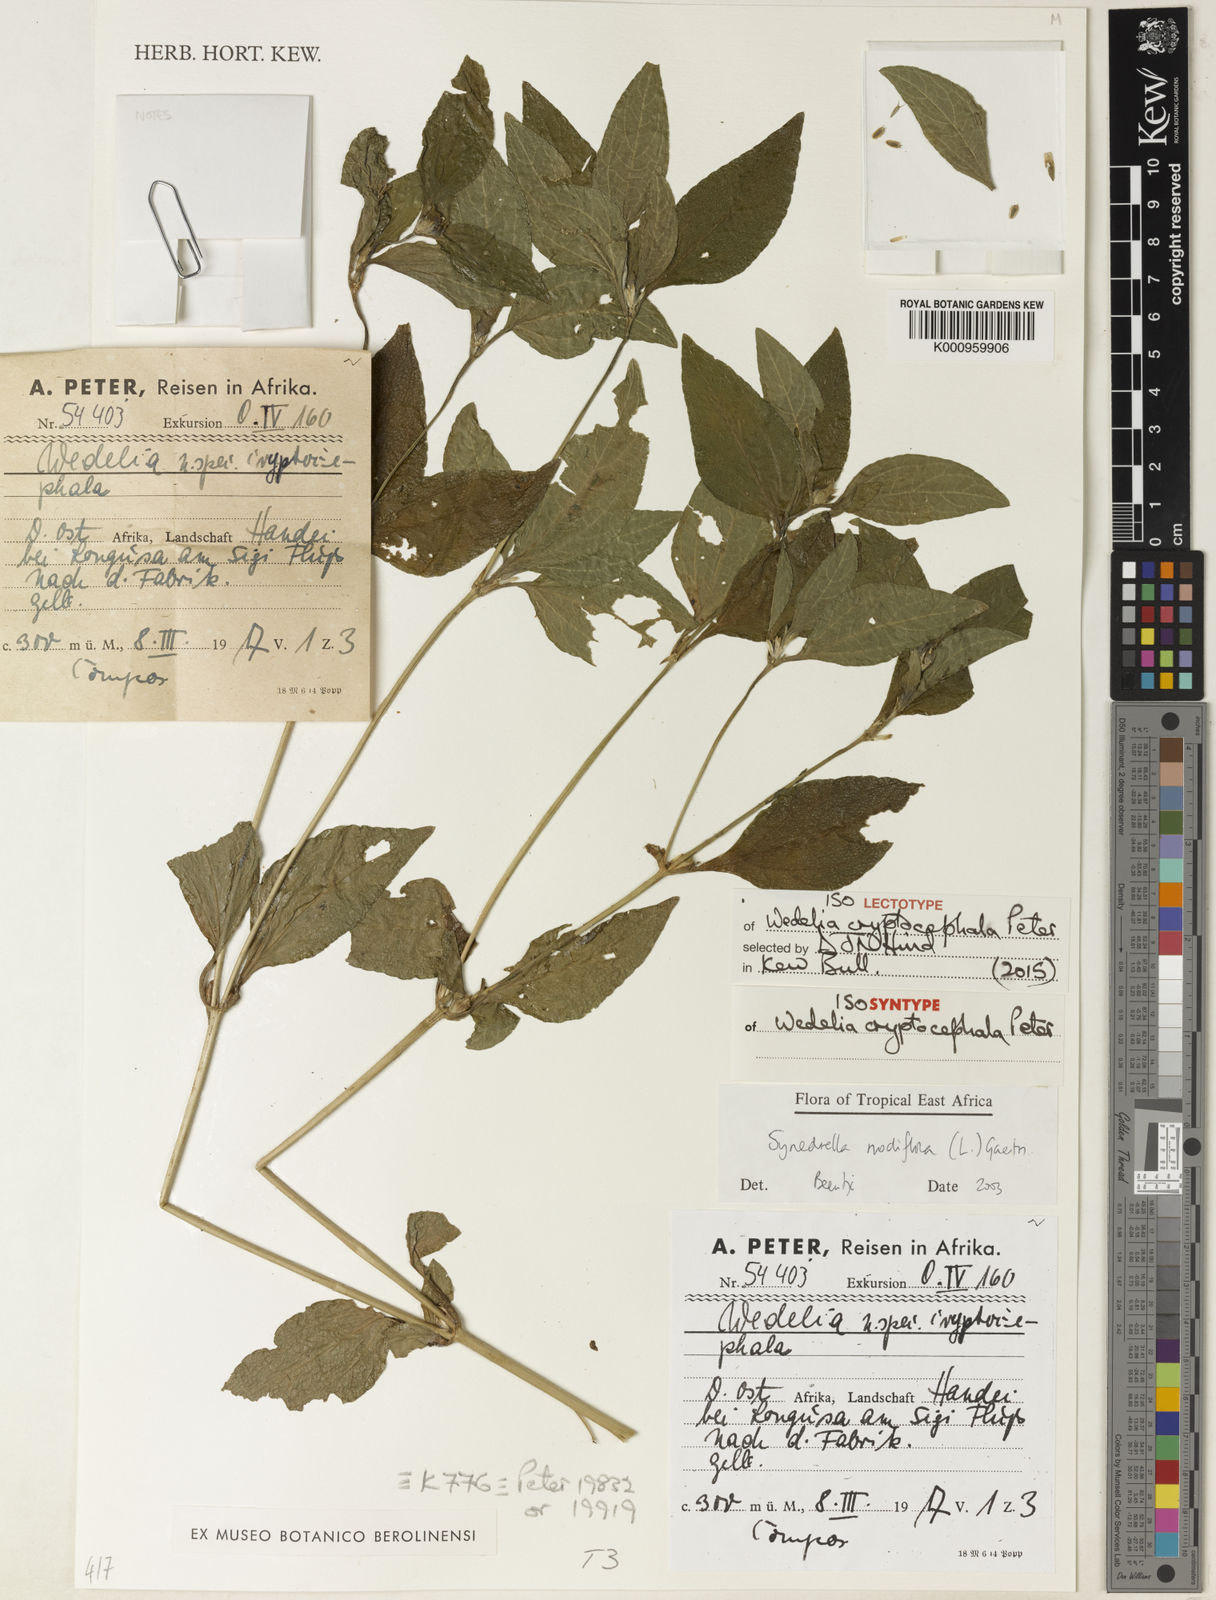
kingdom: Plantae
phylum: Tracheophyta
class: Magnoliopsida
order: Asterales
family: Asteraceae
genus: Synedrella
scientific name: Synedrella nodiflora
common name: Nodeweed
